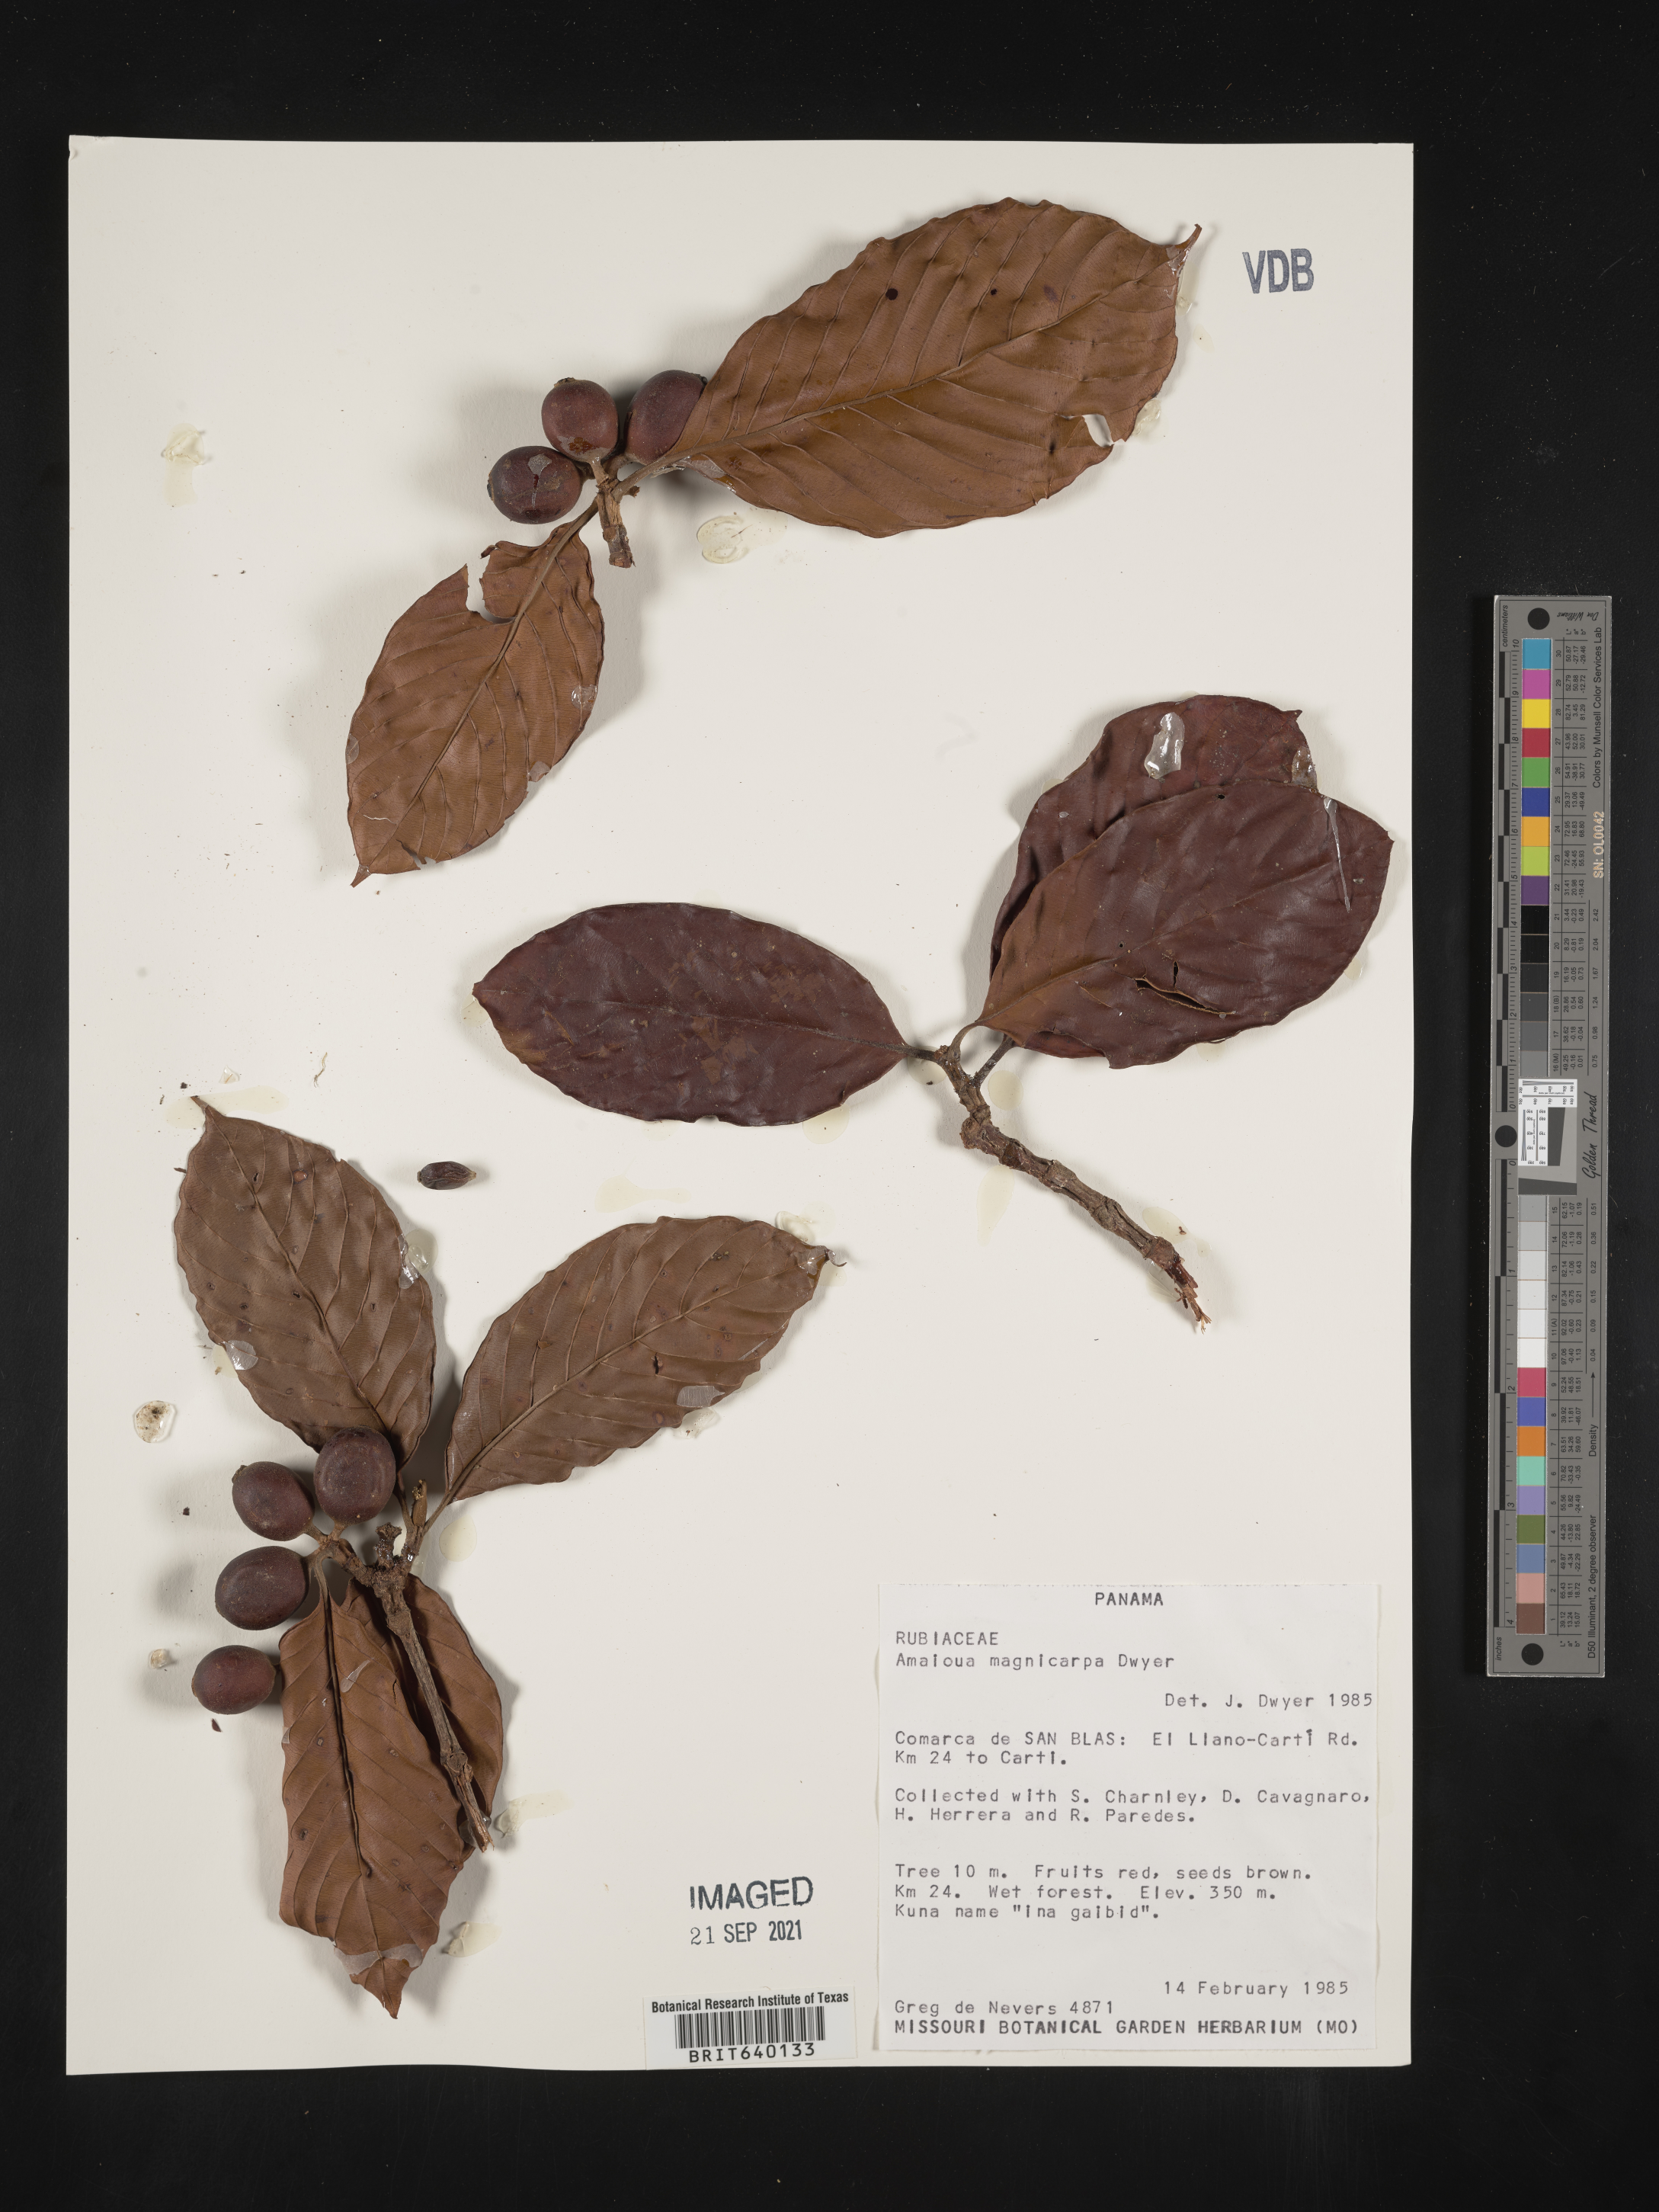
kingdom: Plantae
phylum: Tracheophyta
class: Magnoliopsida
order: Gentianales
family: Rubiaceae
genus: Amaioua
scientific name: Amaioua
